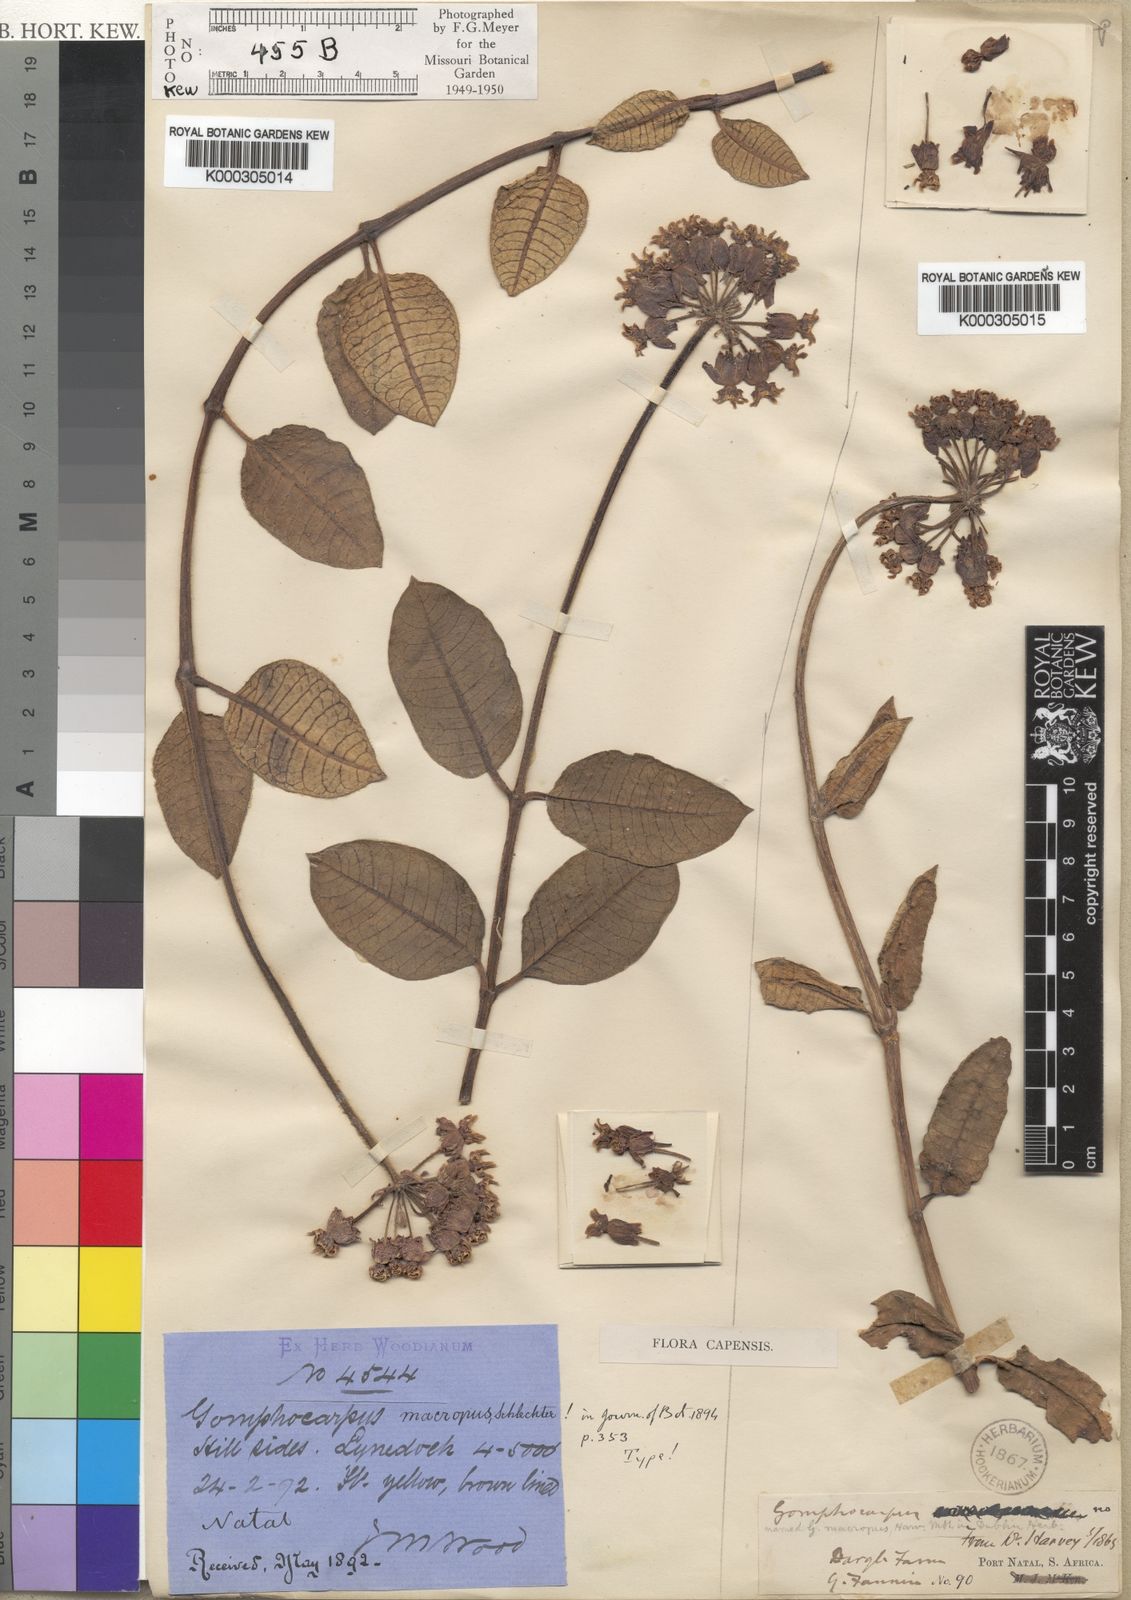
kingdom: Plantae
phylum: Tracheophyta
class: Magnoliopsida
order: Gentianales
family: Apocynaceae
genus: Asclepias
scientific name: Asclepias macropus
